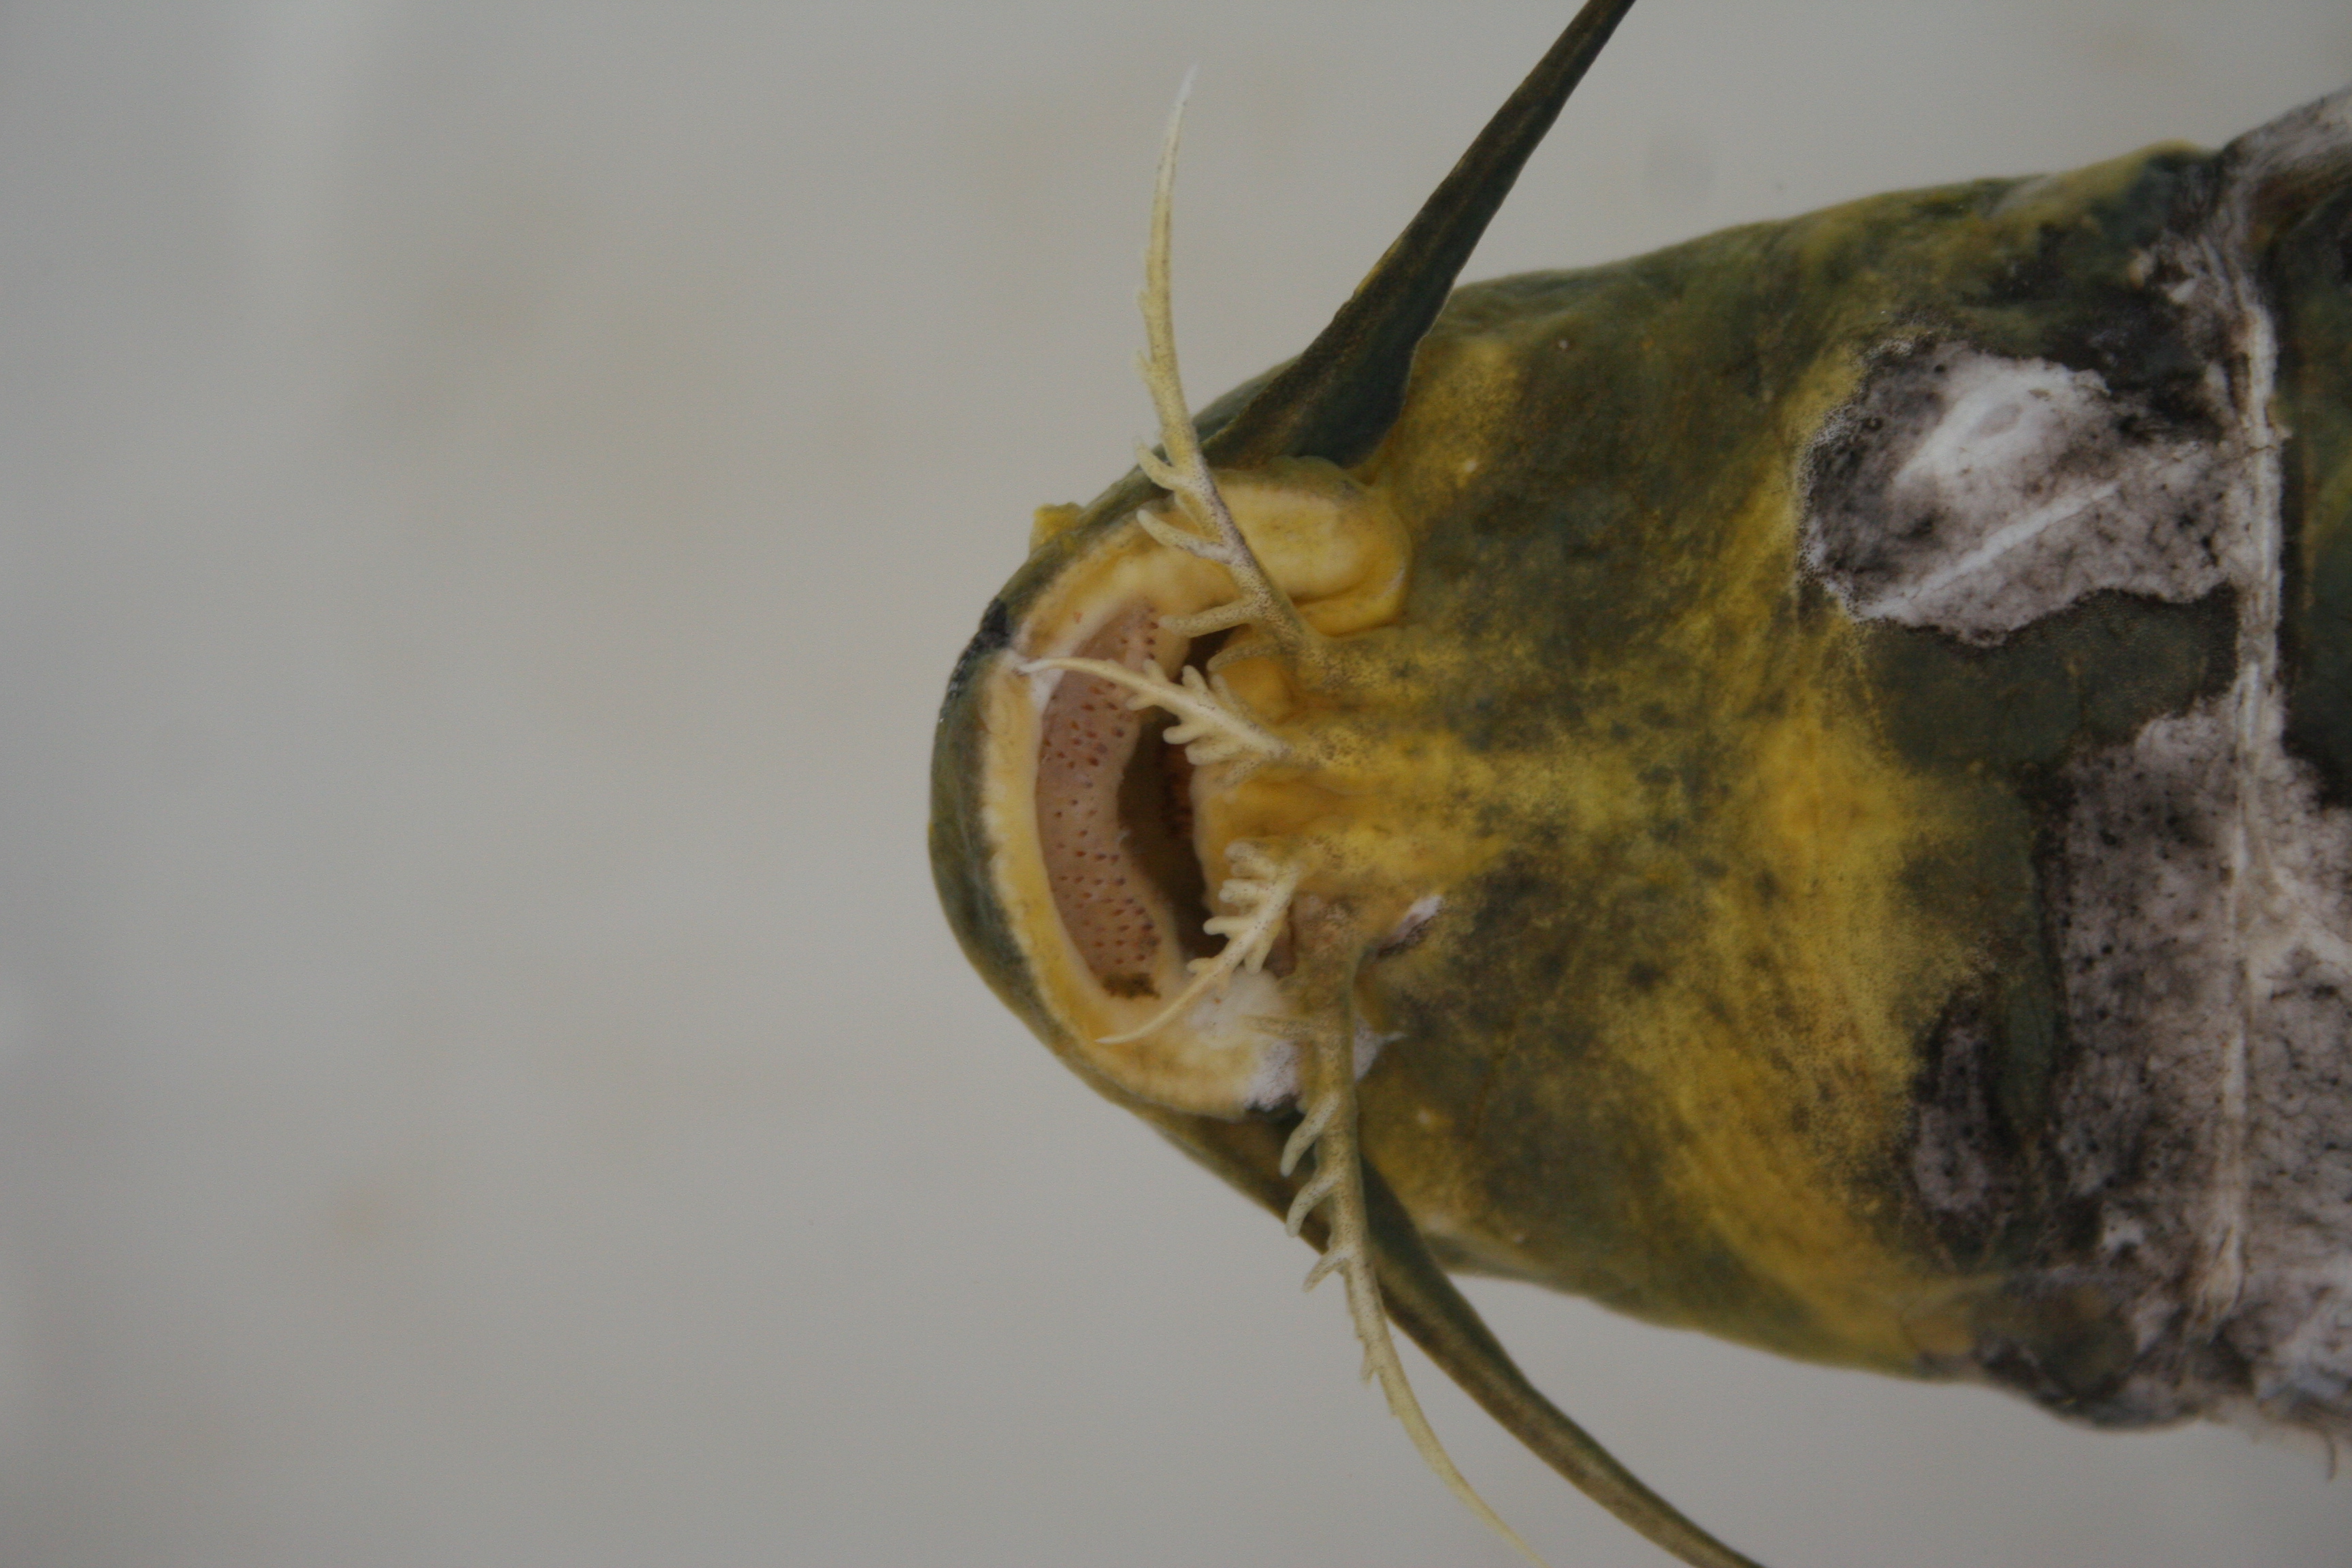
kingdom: Animalia
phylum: Chordata
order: Siluriformes
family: Mochokidae
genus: Synodontis
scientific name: Synodontis
